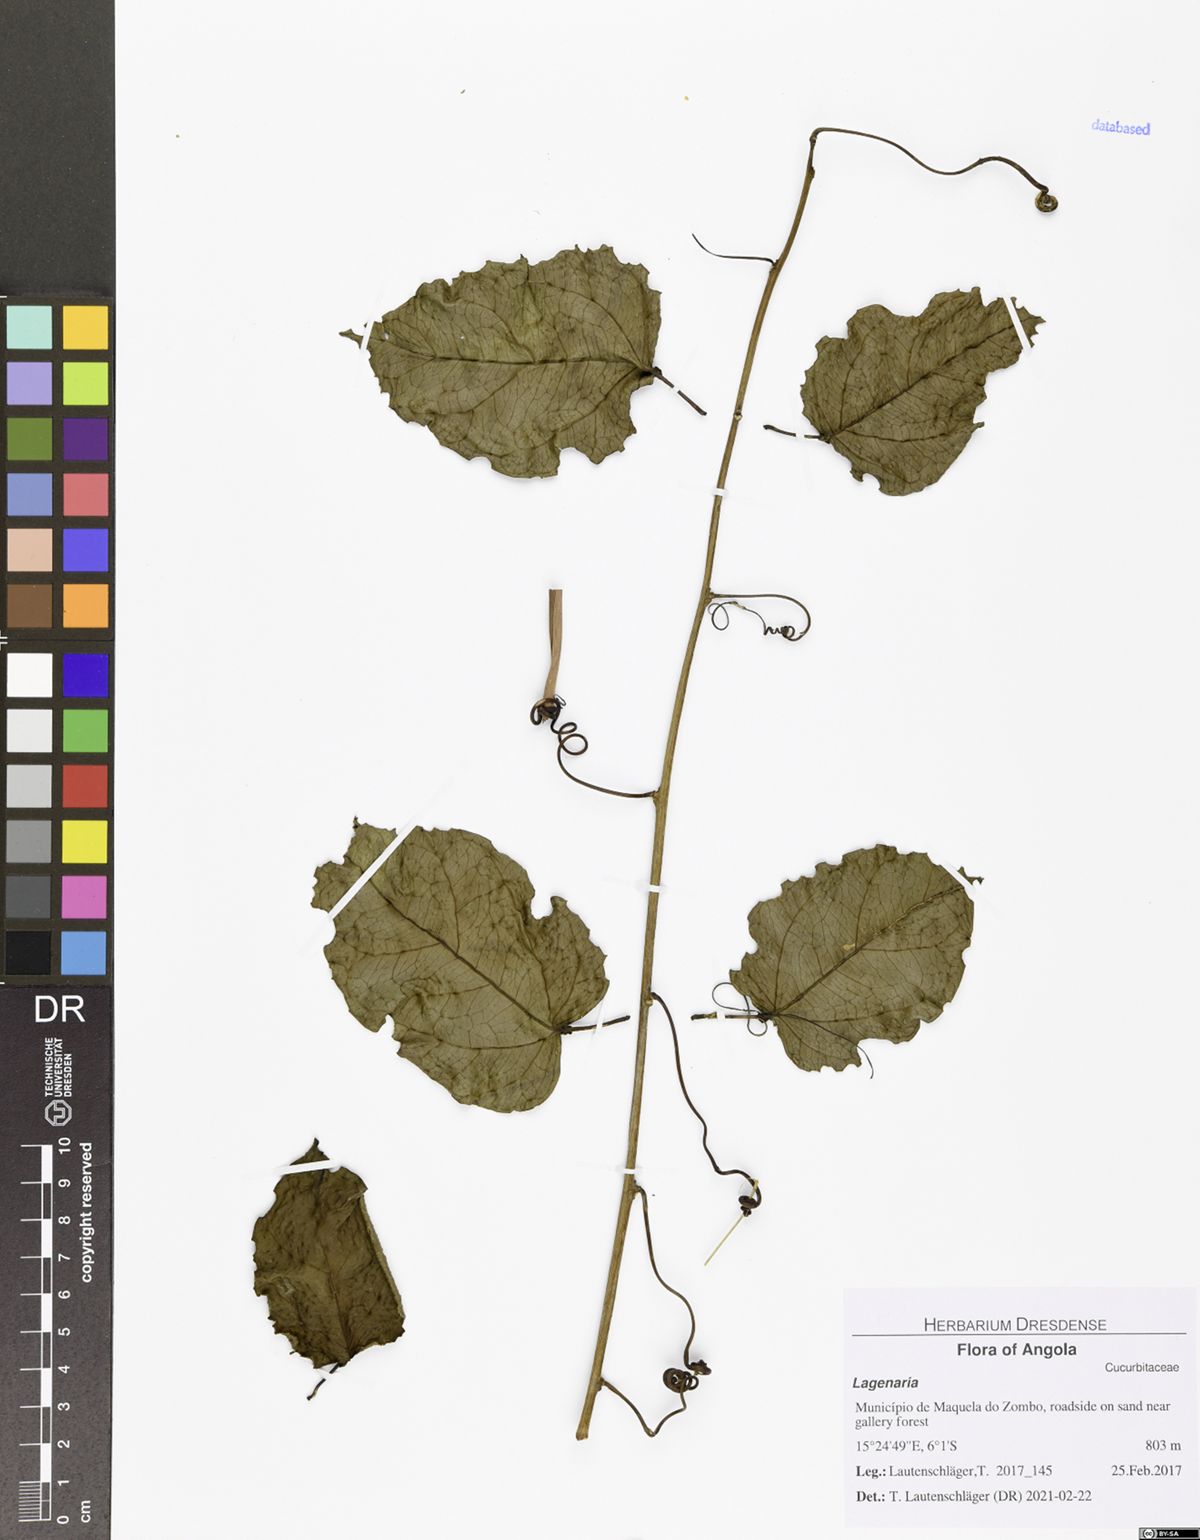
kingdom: Plantae
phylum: Tracheophyta
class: Magnoliopsida
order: Cucurbitales
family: Cucurbitaceae
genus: Lagenaria
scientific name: Lagenaria
